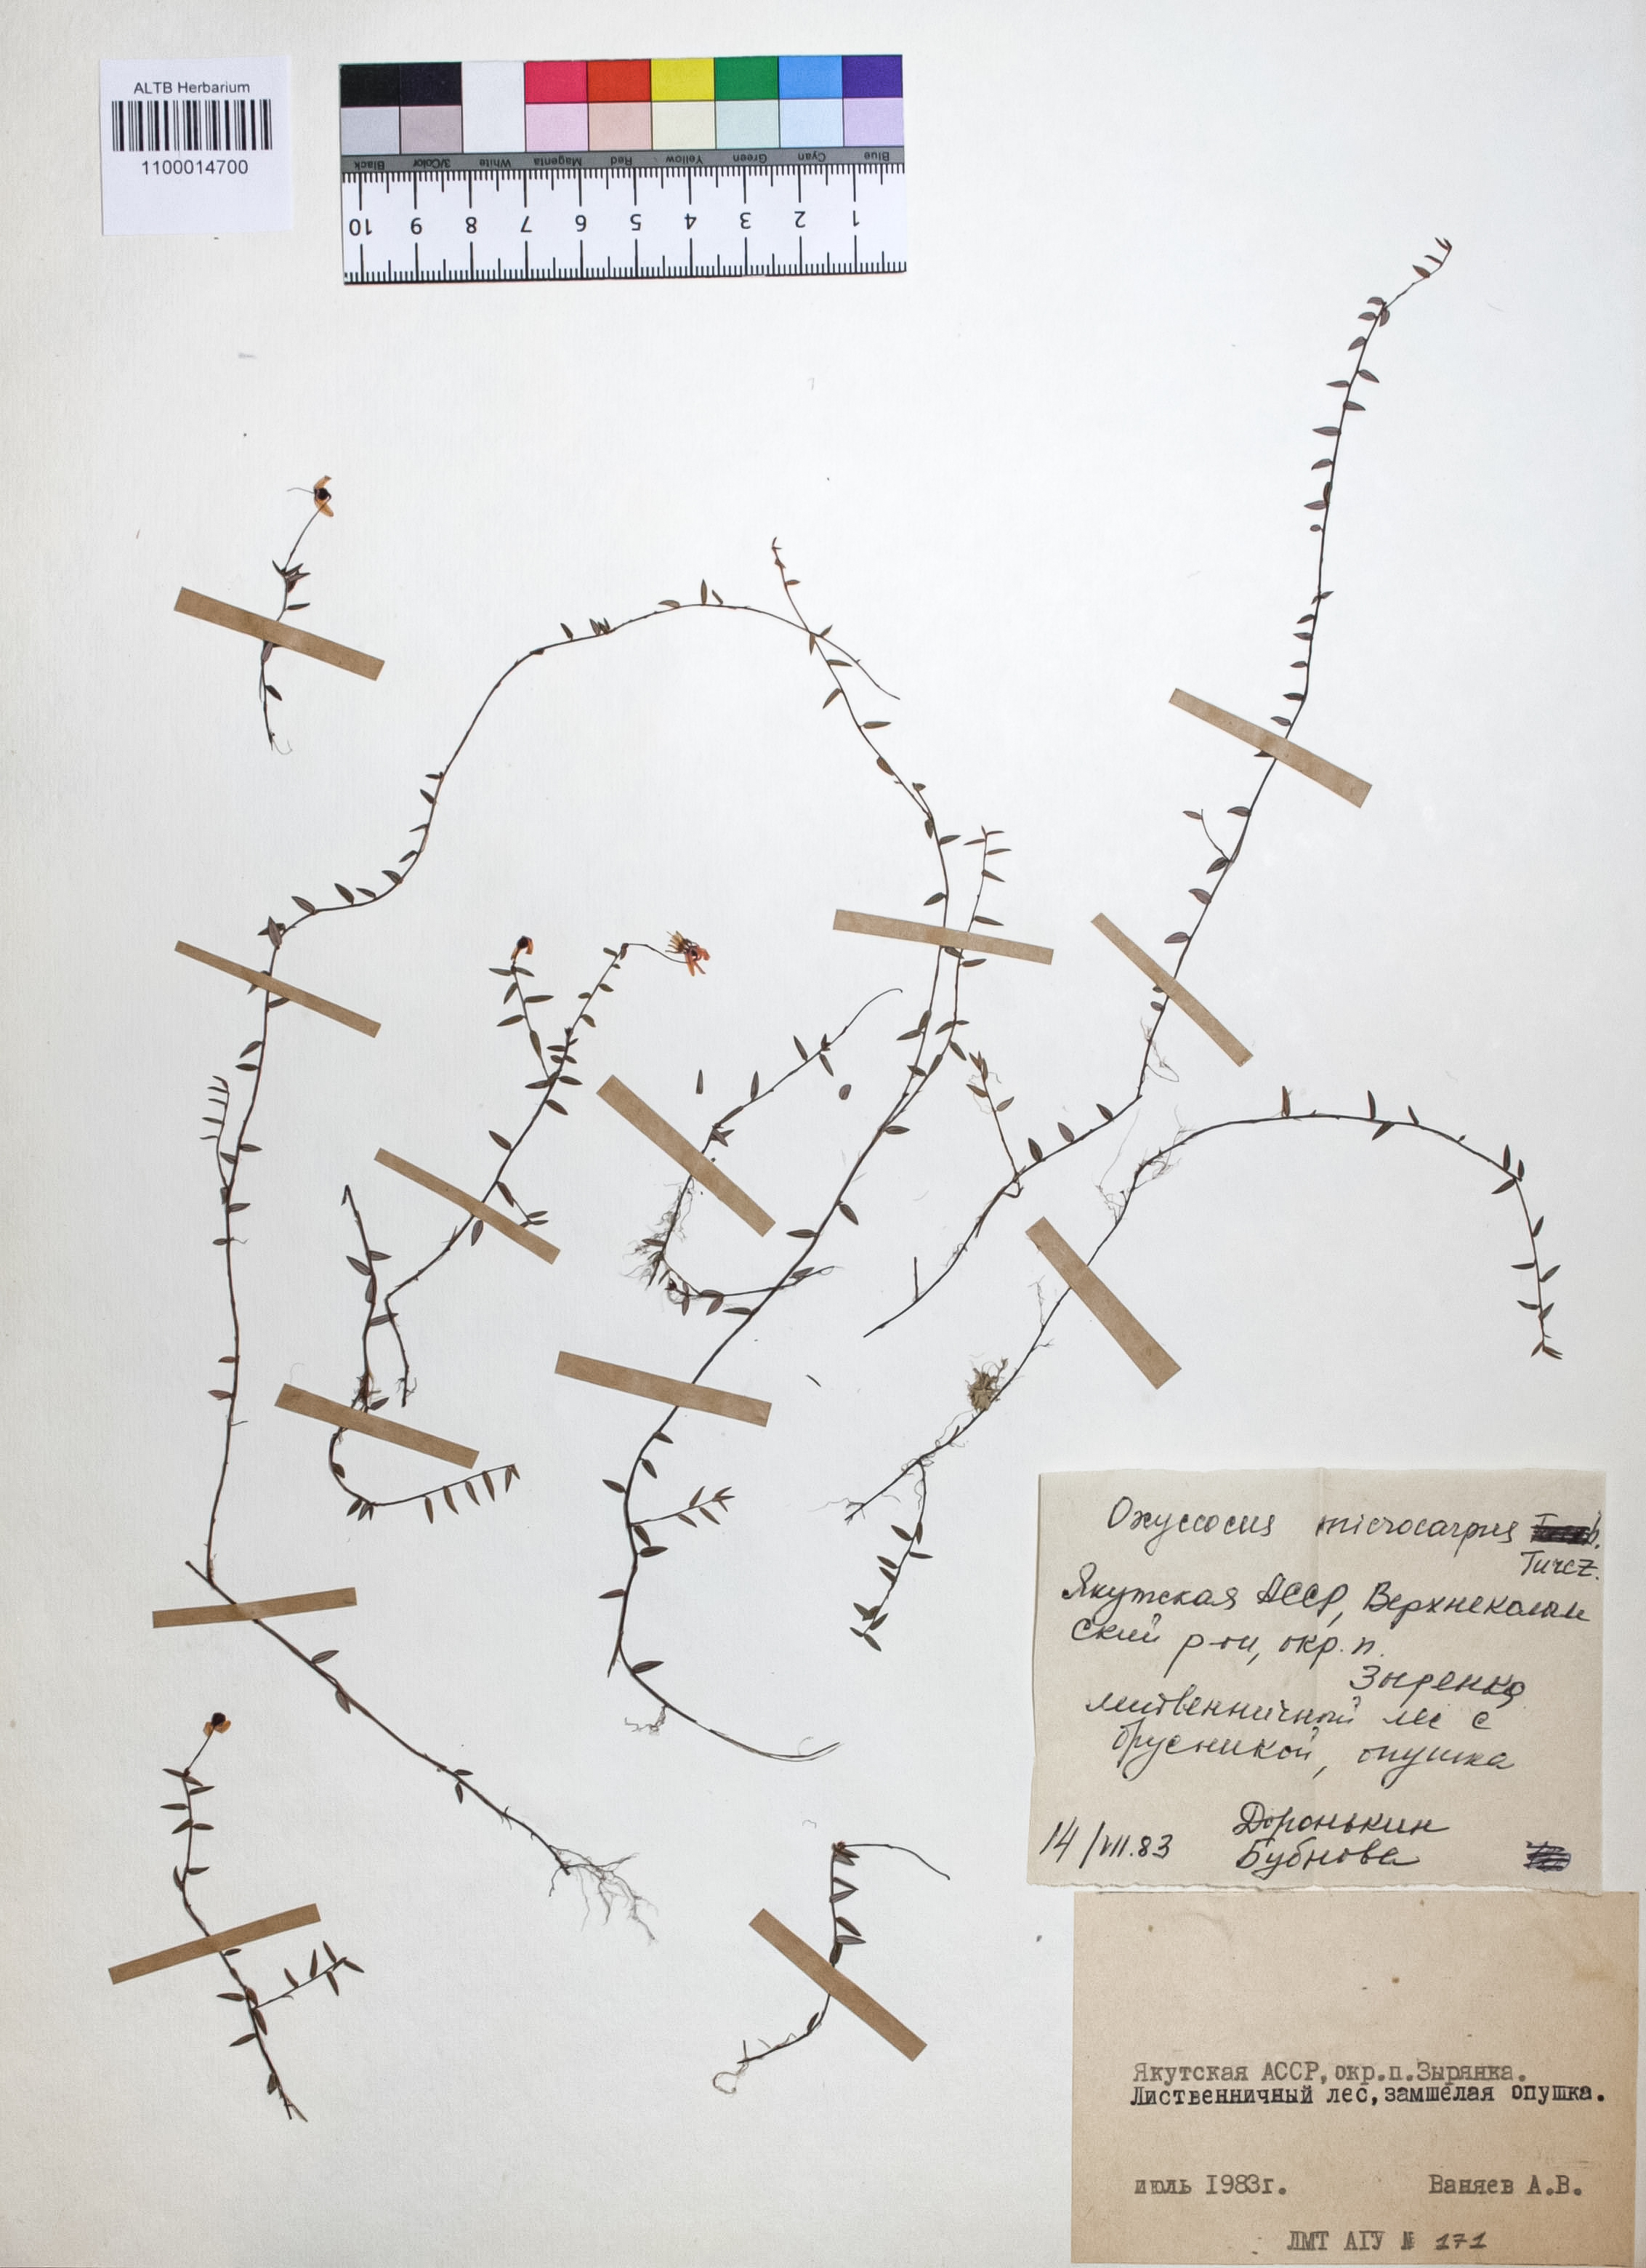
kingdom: Plantae
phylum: Tracheophyta
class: Magnoliopsida
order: Ericales
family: Ericaceae
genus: Vaccinium
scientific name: Vaccinium microcarpum
